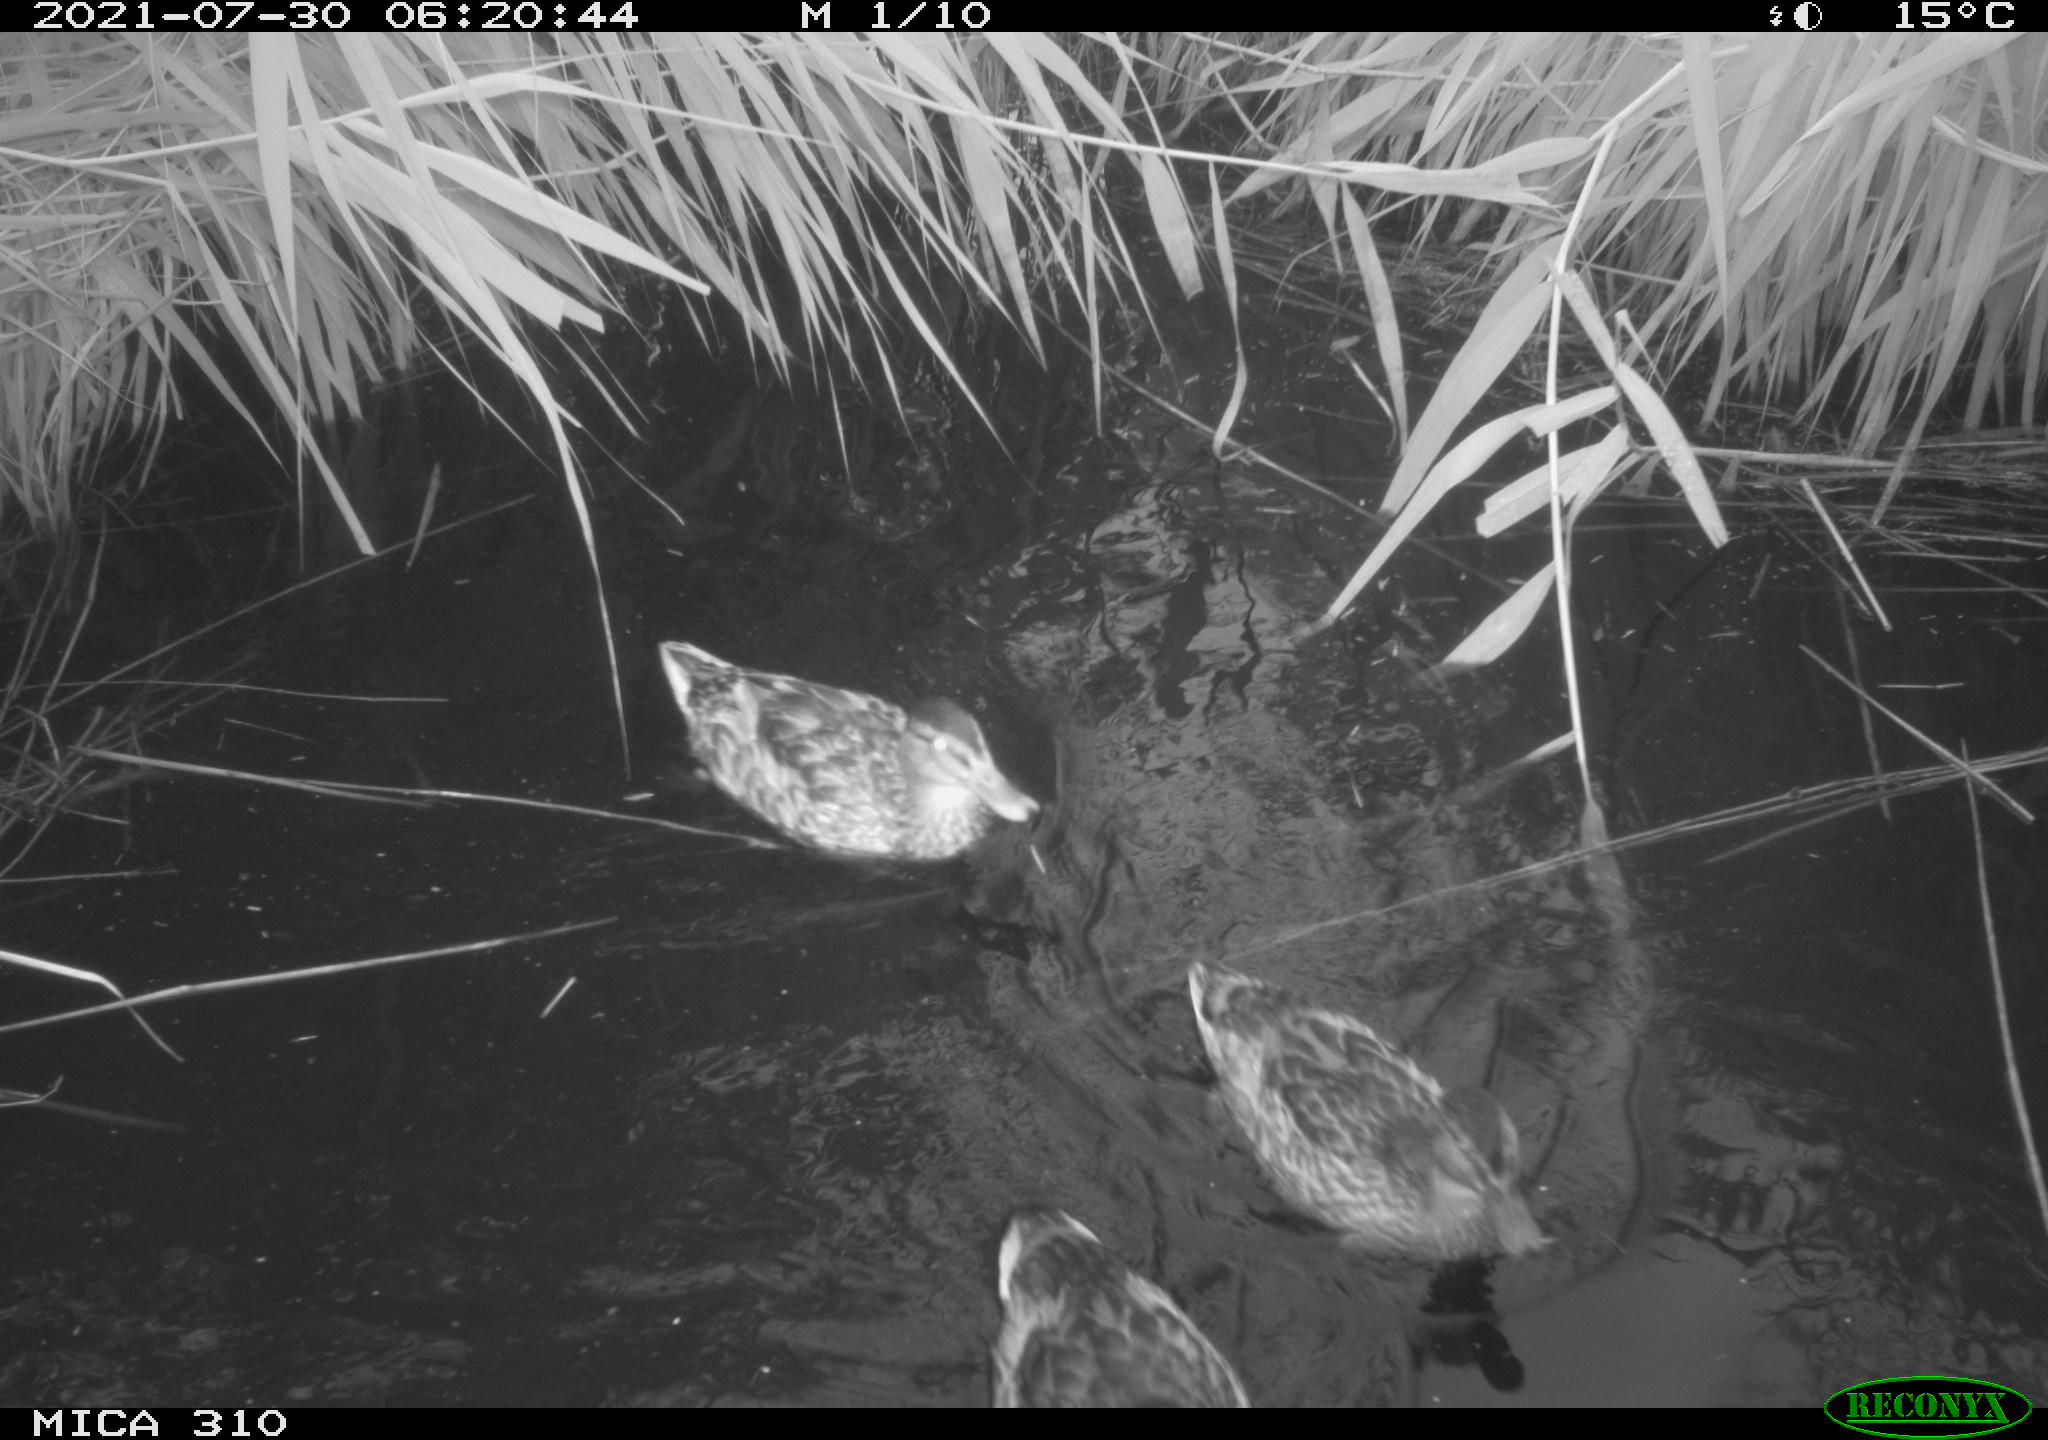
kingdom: Animalia
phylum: Chordata
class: Aves
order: Anseriformes
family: Anatidae
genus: Anas
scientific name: Anas platyrhynchos
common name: Mallard
